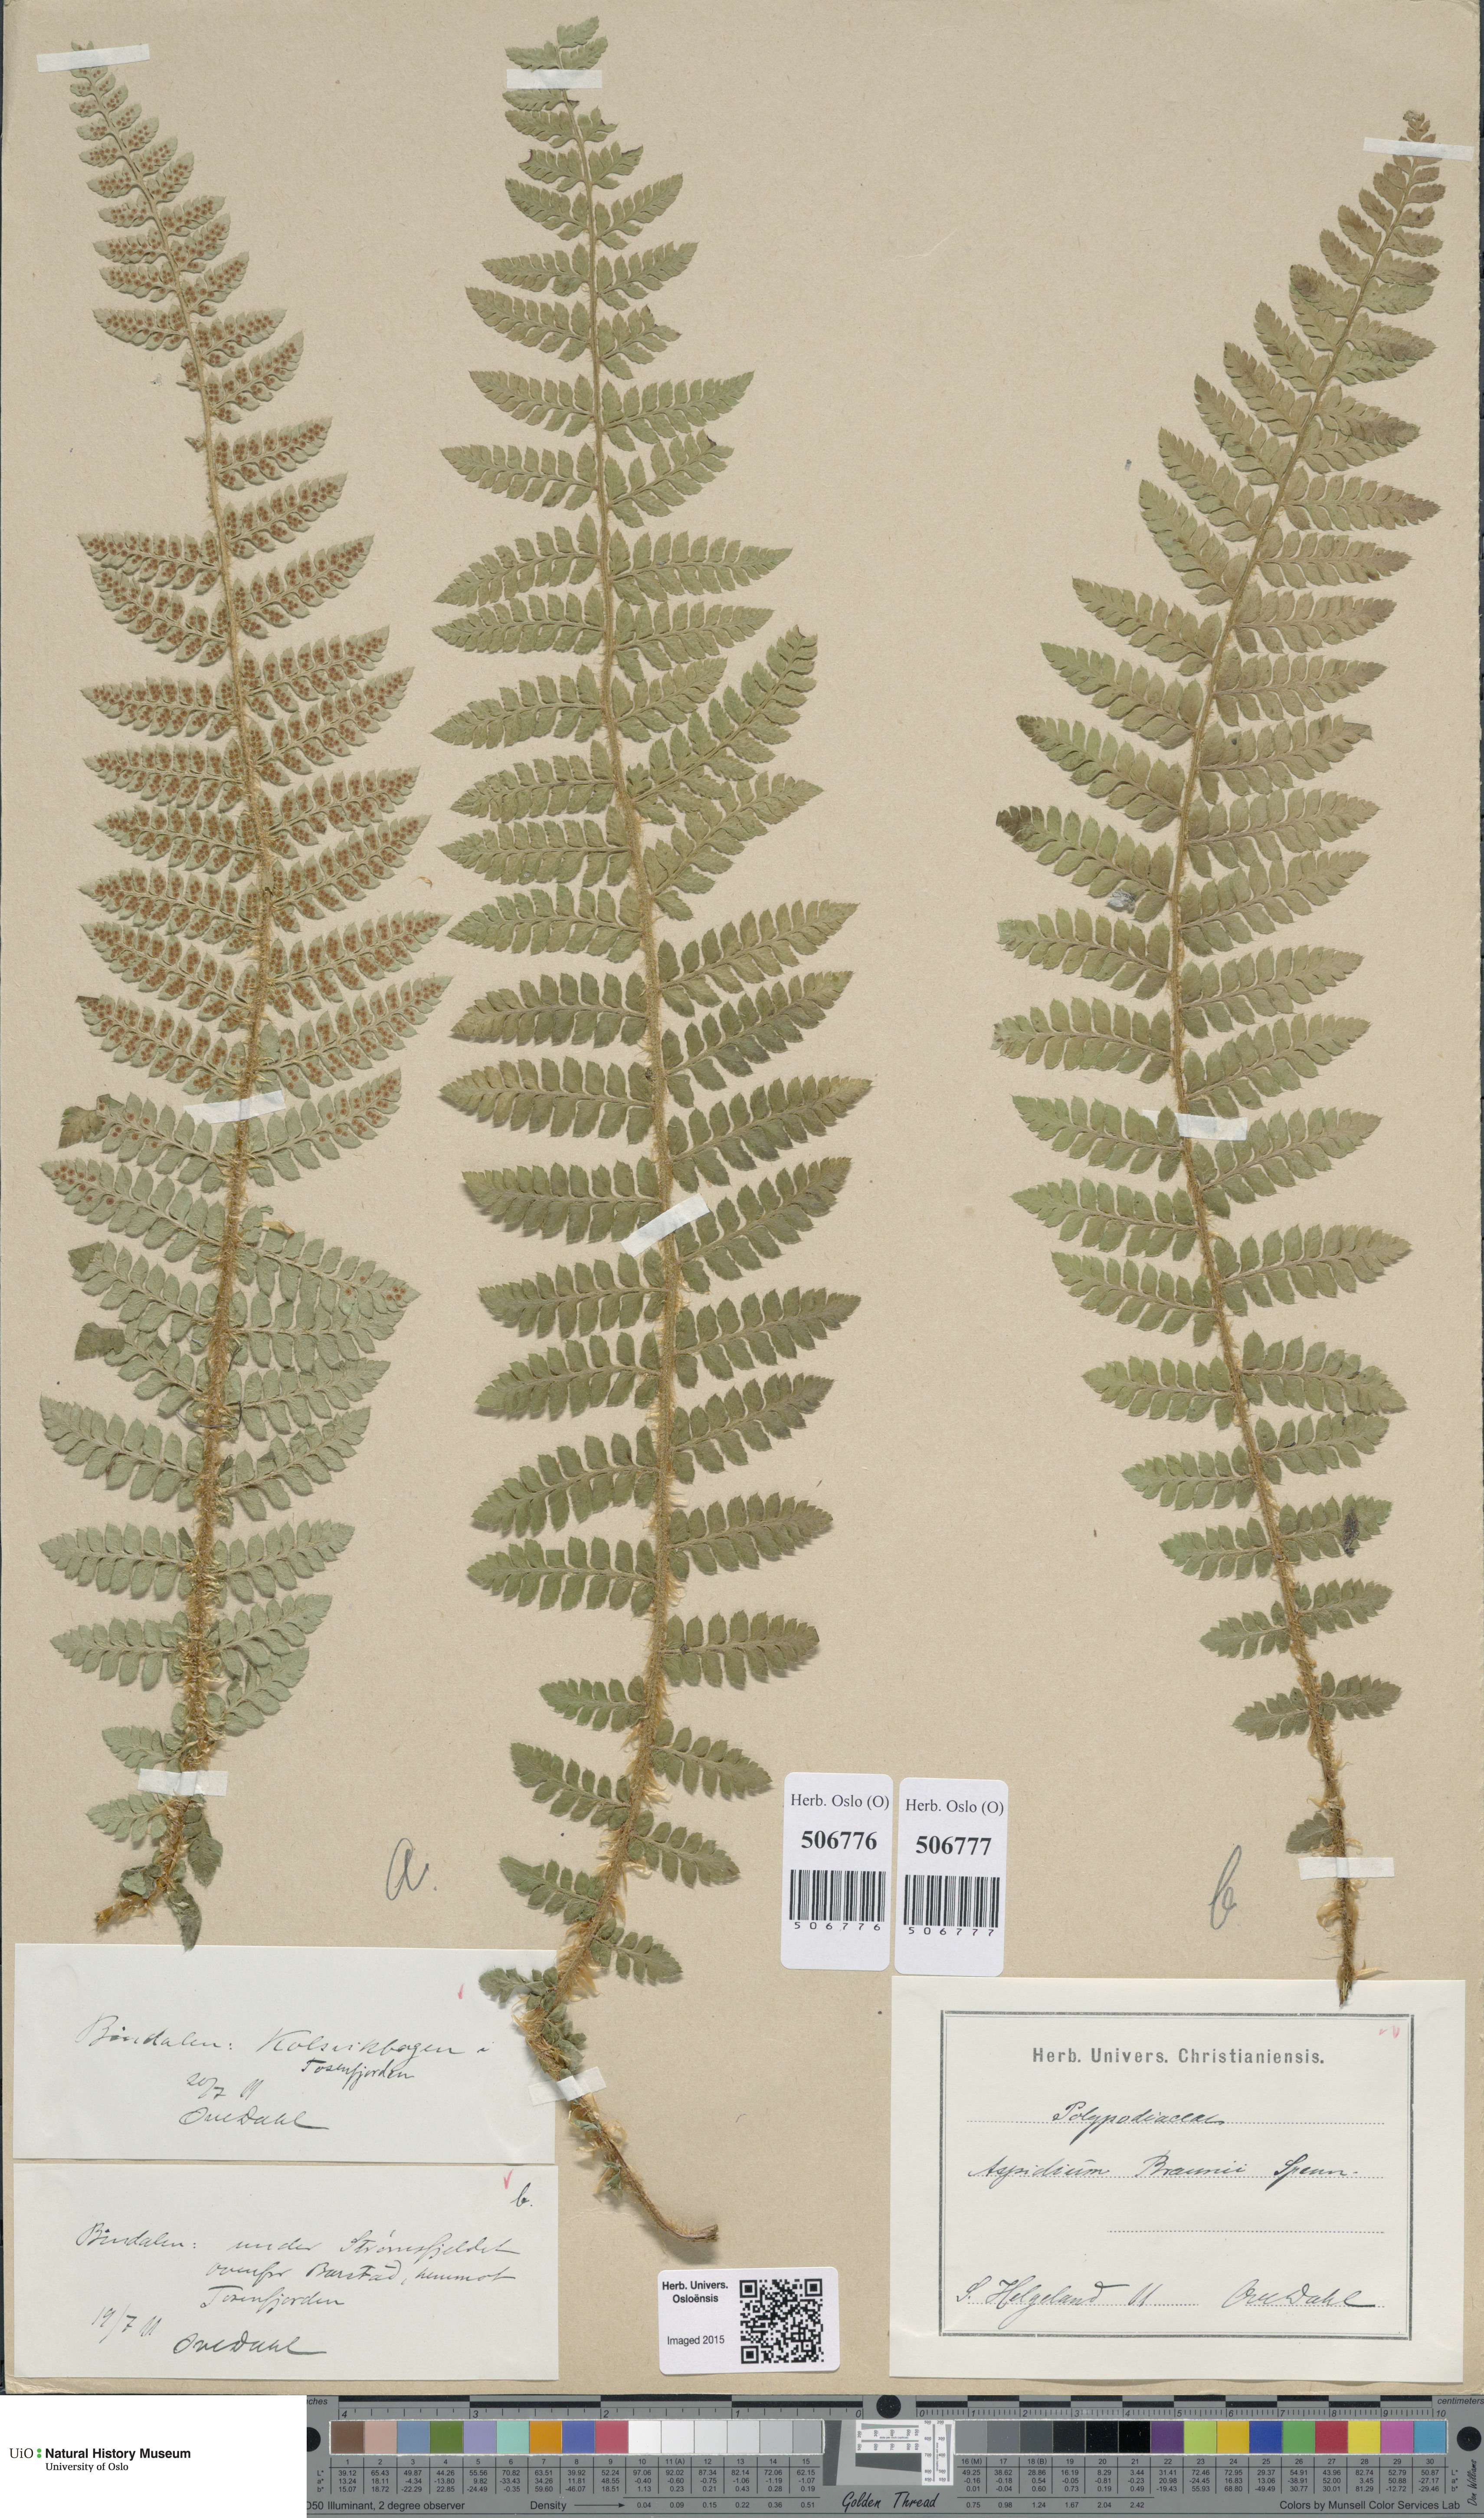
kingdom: Plantae
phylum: Tracheophyta
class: Polypodiopsida
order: Polypodiales
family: Dryopteridaceae
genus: Polystichum
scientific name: Polystichum braunii
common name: Braun's holly fern
